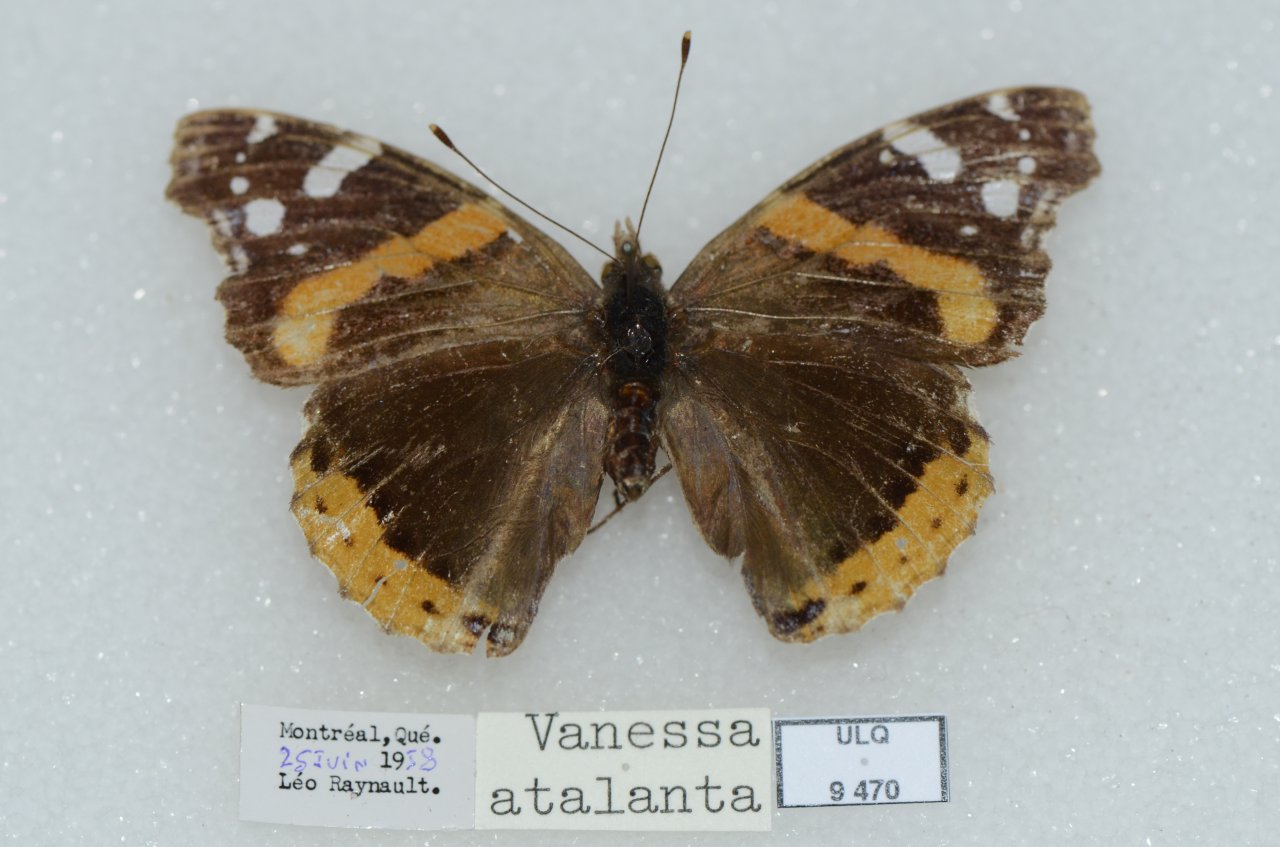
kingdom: Animalia
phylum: Arthropoda
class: Insecta
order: Lepidoptera
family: Nymphalidae
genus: Vanessa
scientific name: Vanessa atalanta
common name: Red Admiral
